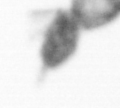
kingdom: Animalia
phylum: Arthropoda
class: Copepoda
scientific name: Copepoda
